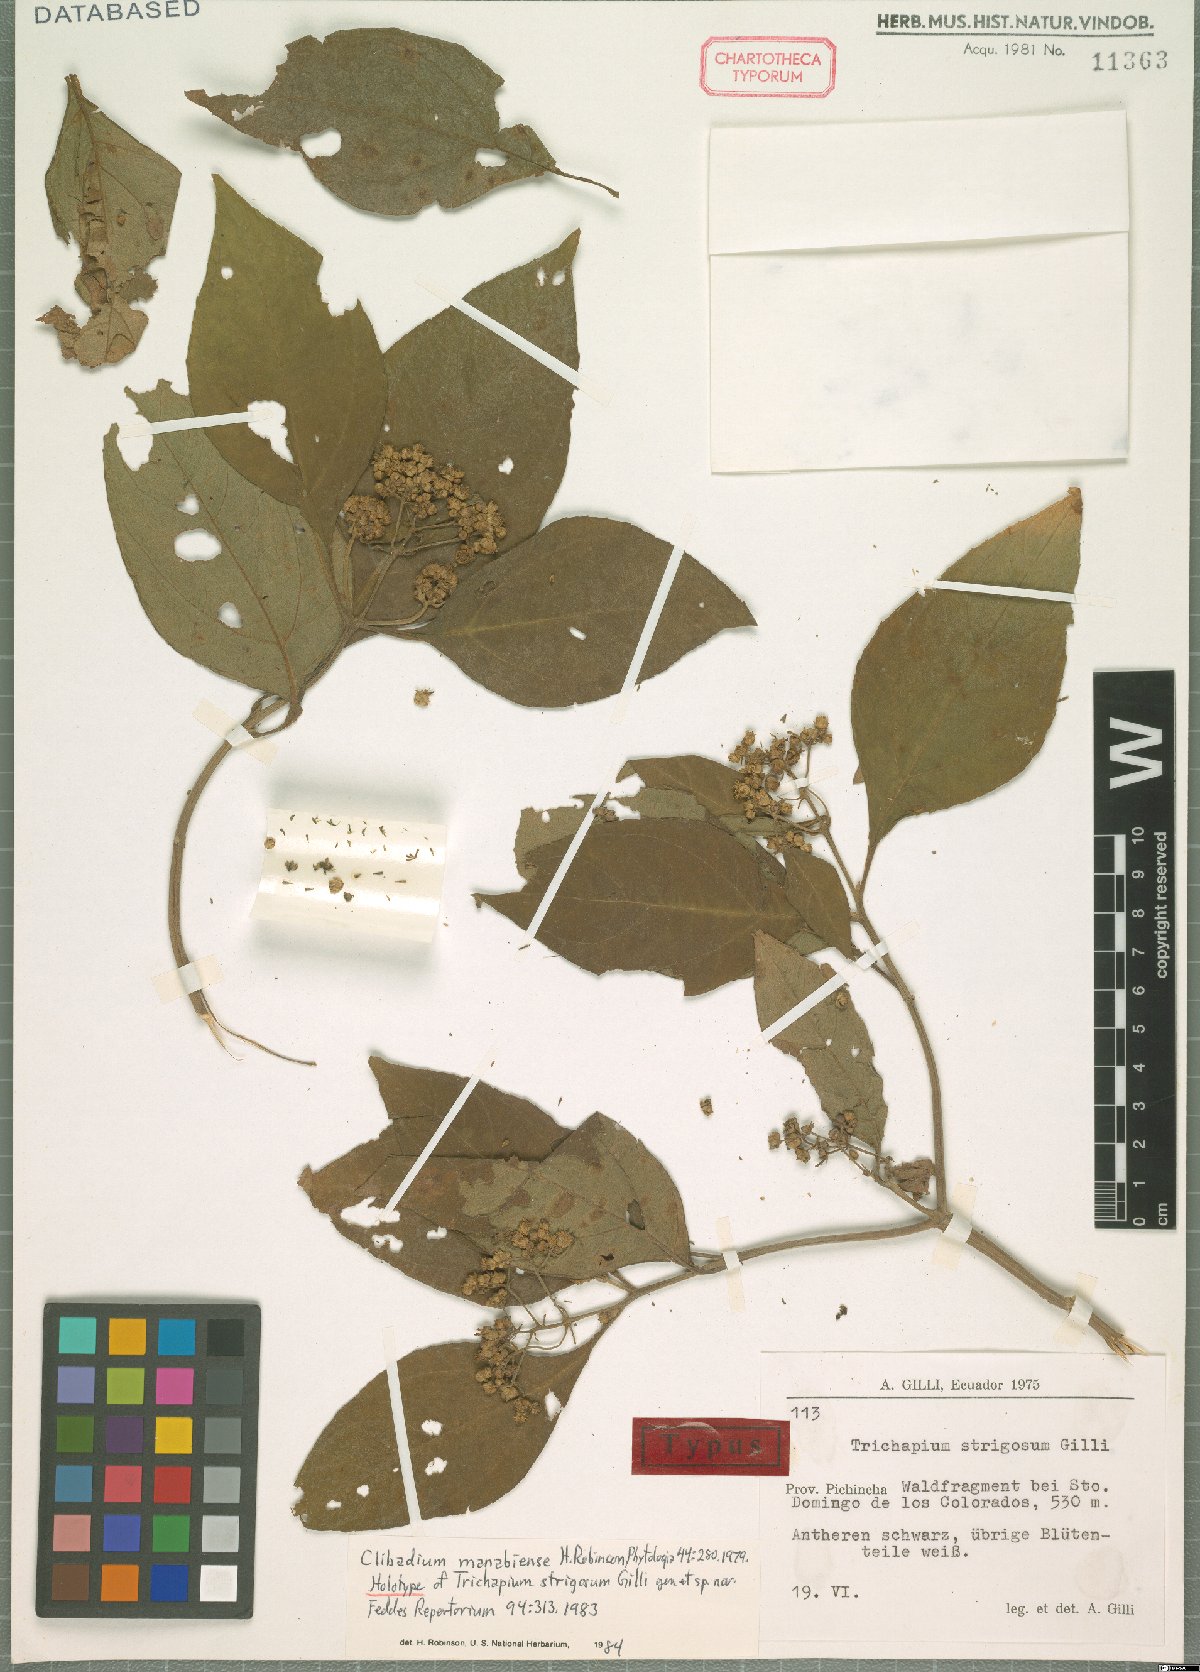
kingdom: Plantae
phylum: Tracheophyta
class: Magnoliopsida
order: Asterales
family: Asteraceae
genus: Clibadium
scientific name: Clibadium manabiense
